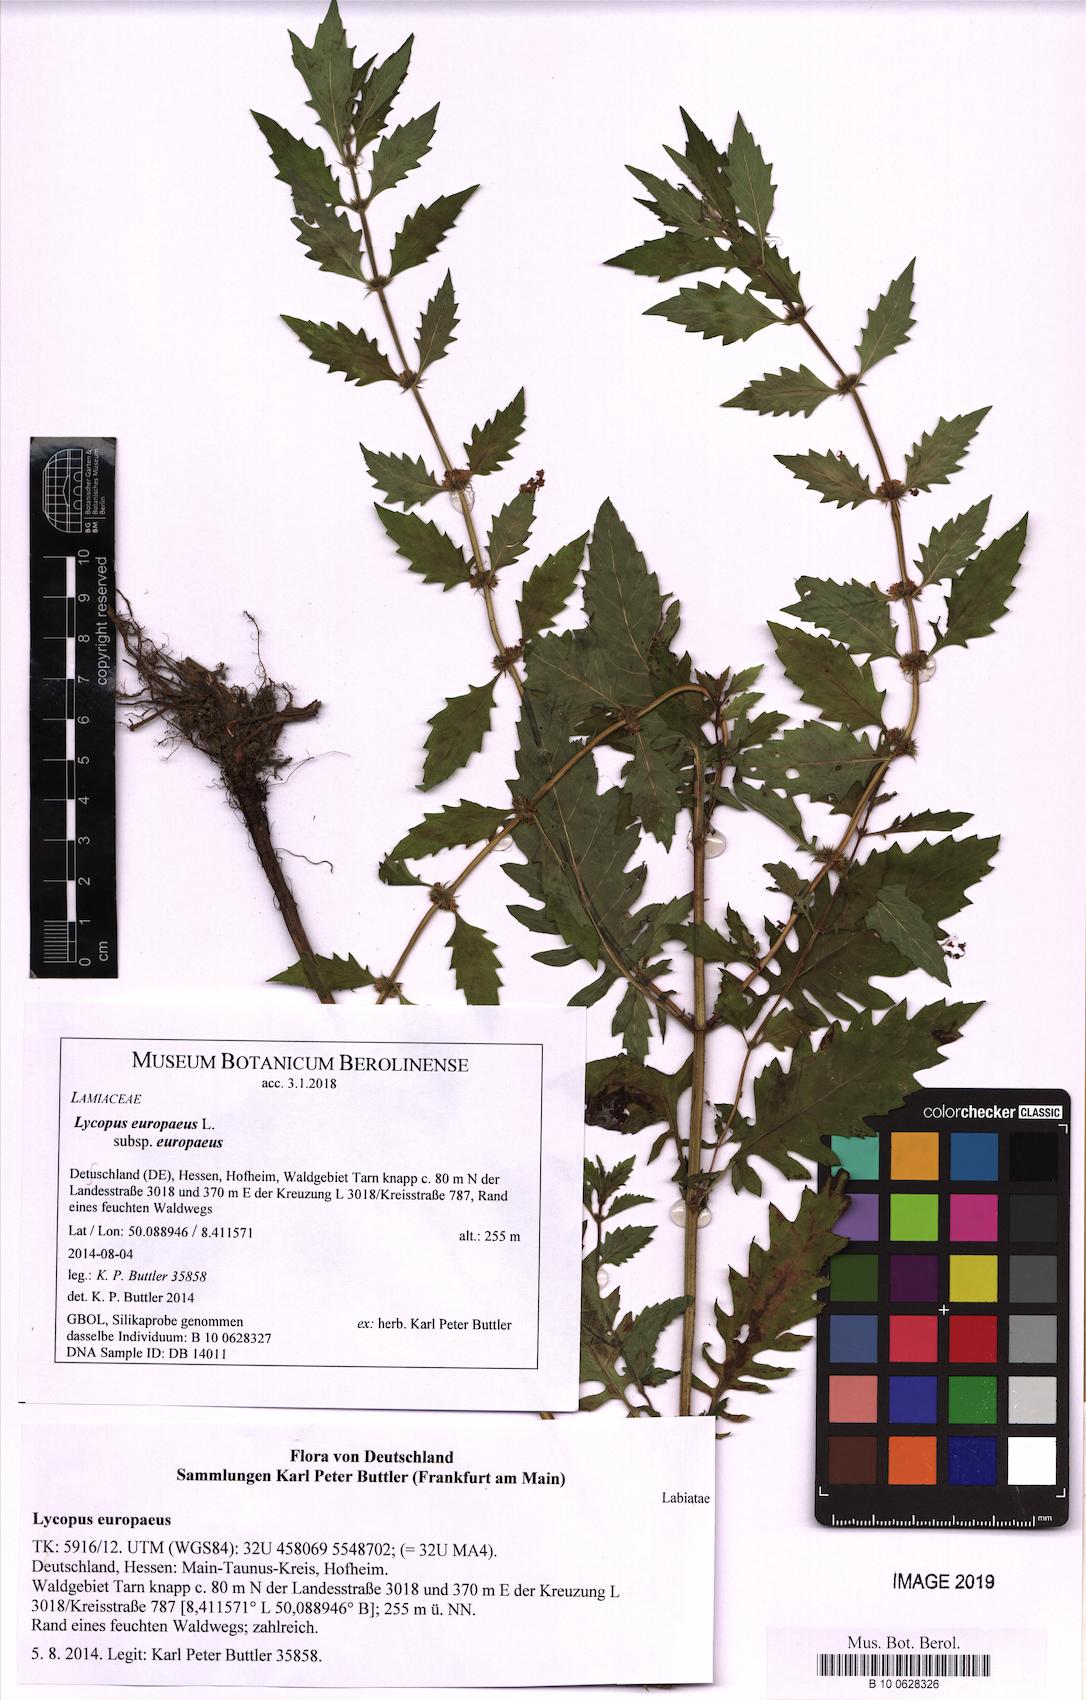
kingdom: Plantae
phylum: Tracheophyta
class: Magnoliopsida
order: Lamiales
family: Lamiaceae
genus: Lycopus
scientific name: Lycopus europaeus
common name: European bugleweed
